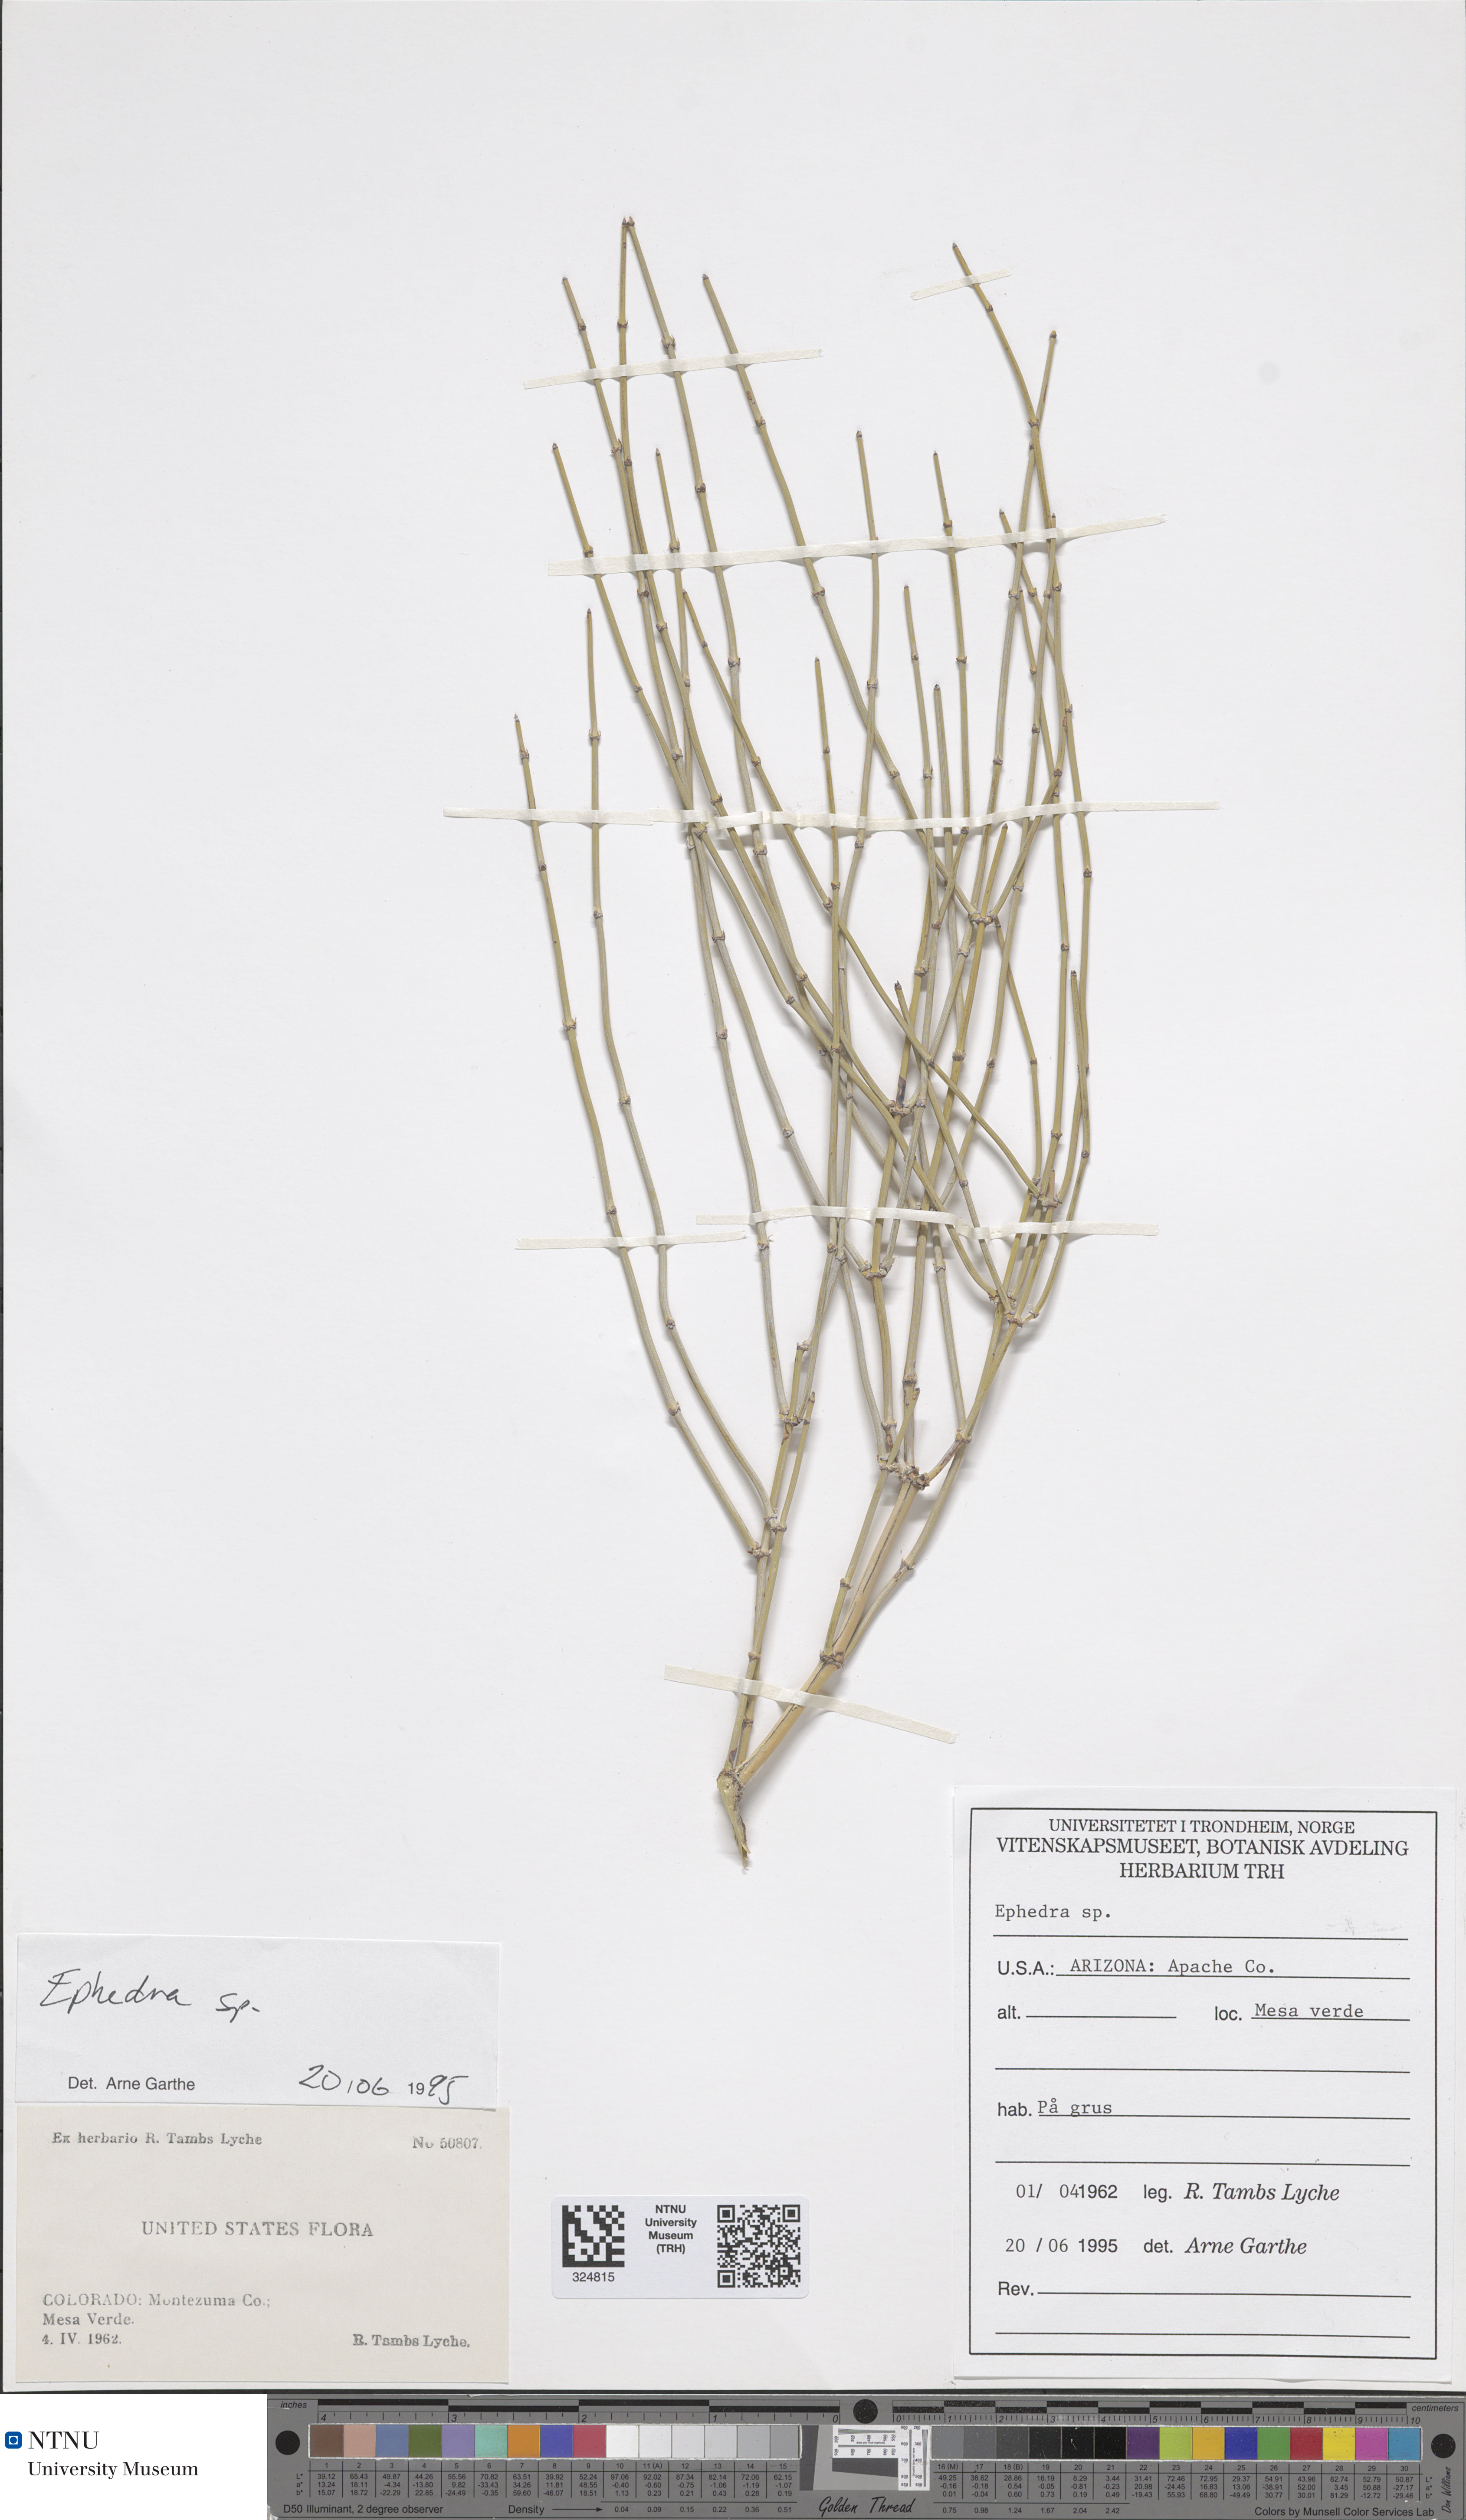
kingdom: Plantae
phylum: Tracheophyta
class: Gnetopsida
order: Ephedrales
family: Ephedraceae
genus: Ephedra
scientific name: Ephedra
